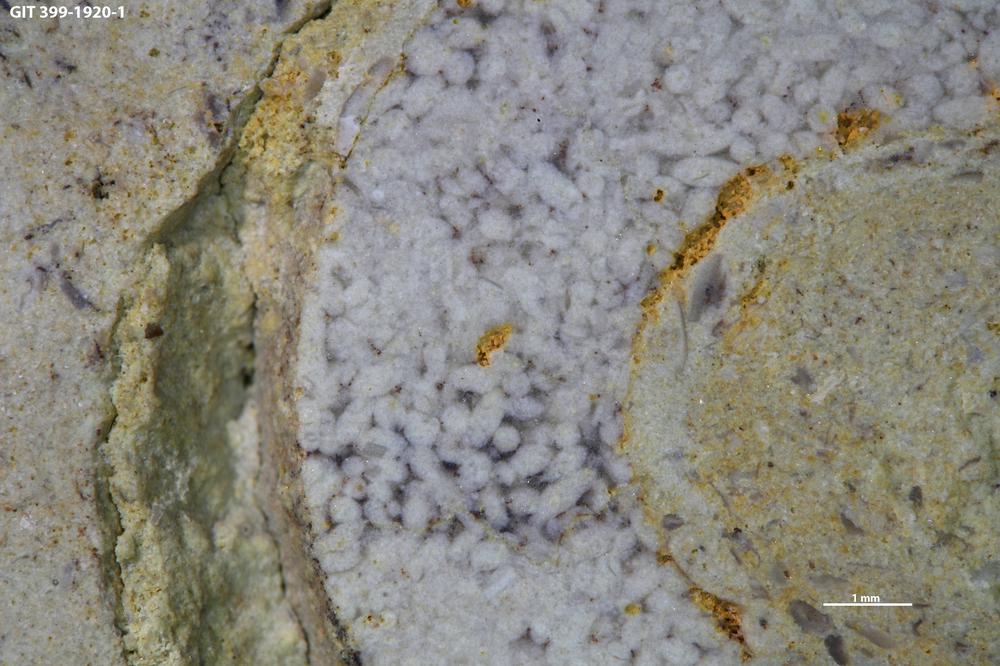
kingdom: Animalia
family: Coprulidae
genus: Coprulus
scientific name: Coprulus
